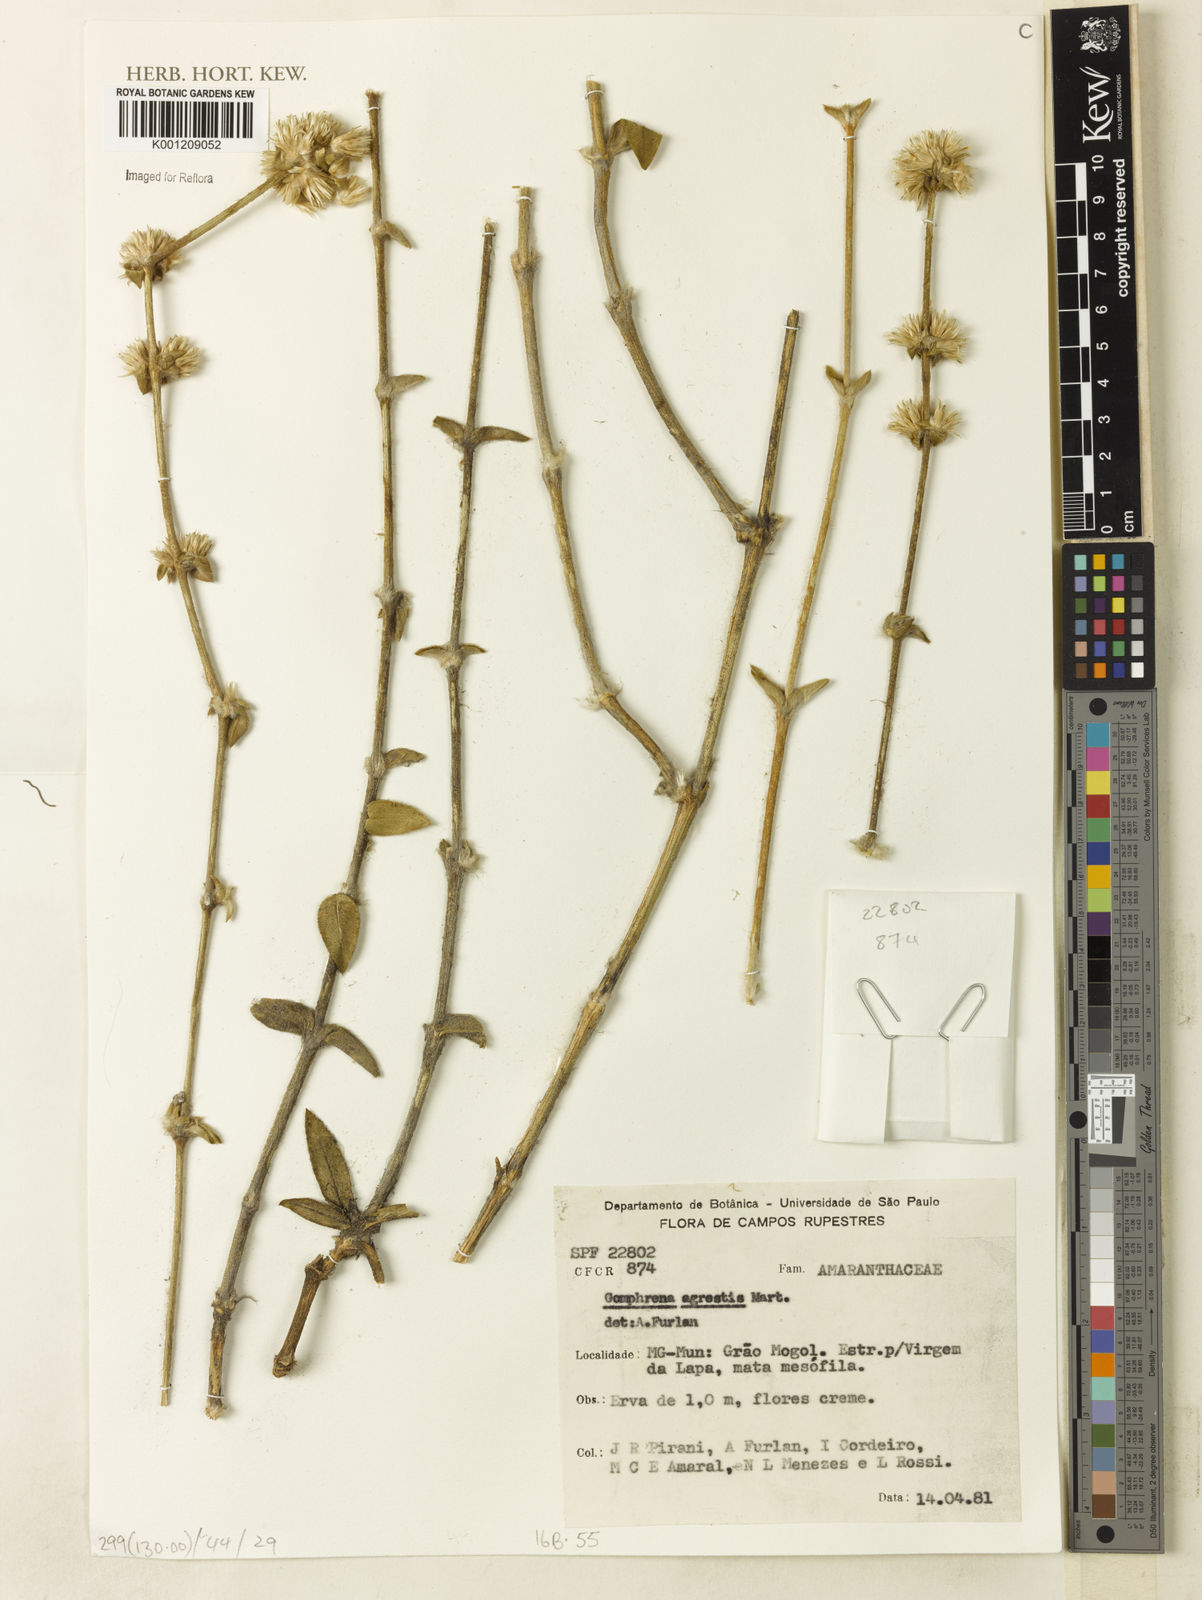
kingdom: Plantae
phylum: Tracheophyta
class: Magnoliopsida
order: Caryophyllales
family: Amaranthaceae
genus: Gomphrena
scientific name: Gomphrena agrestis
